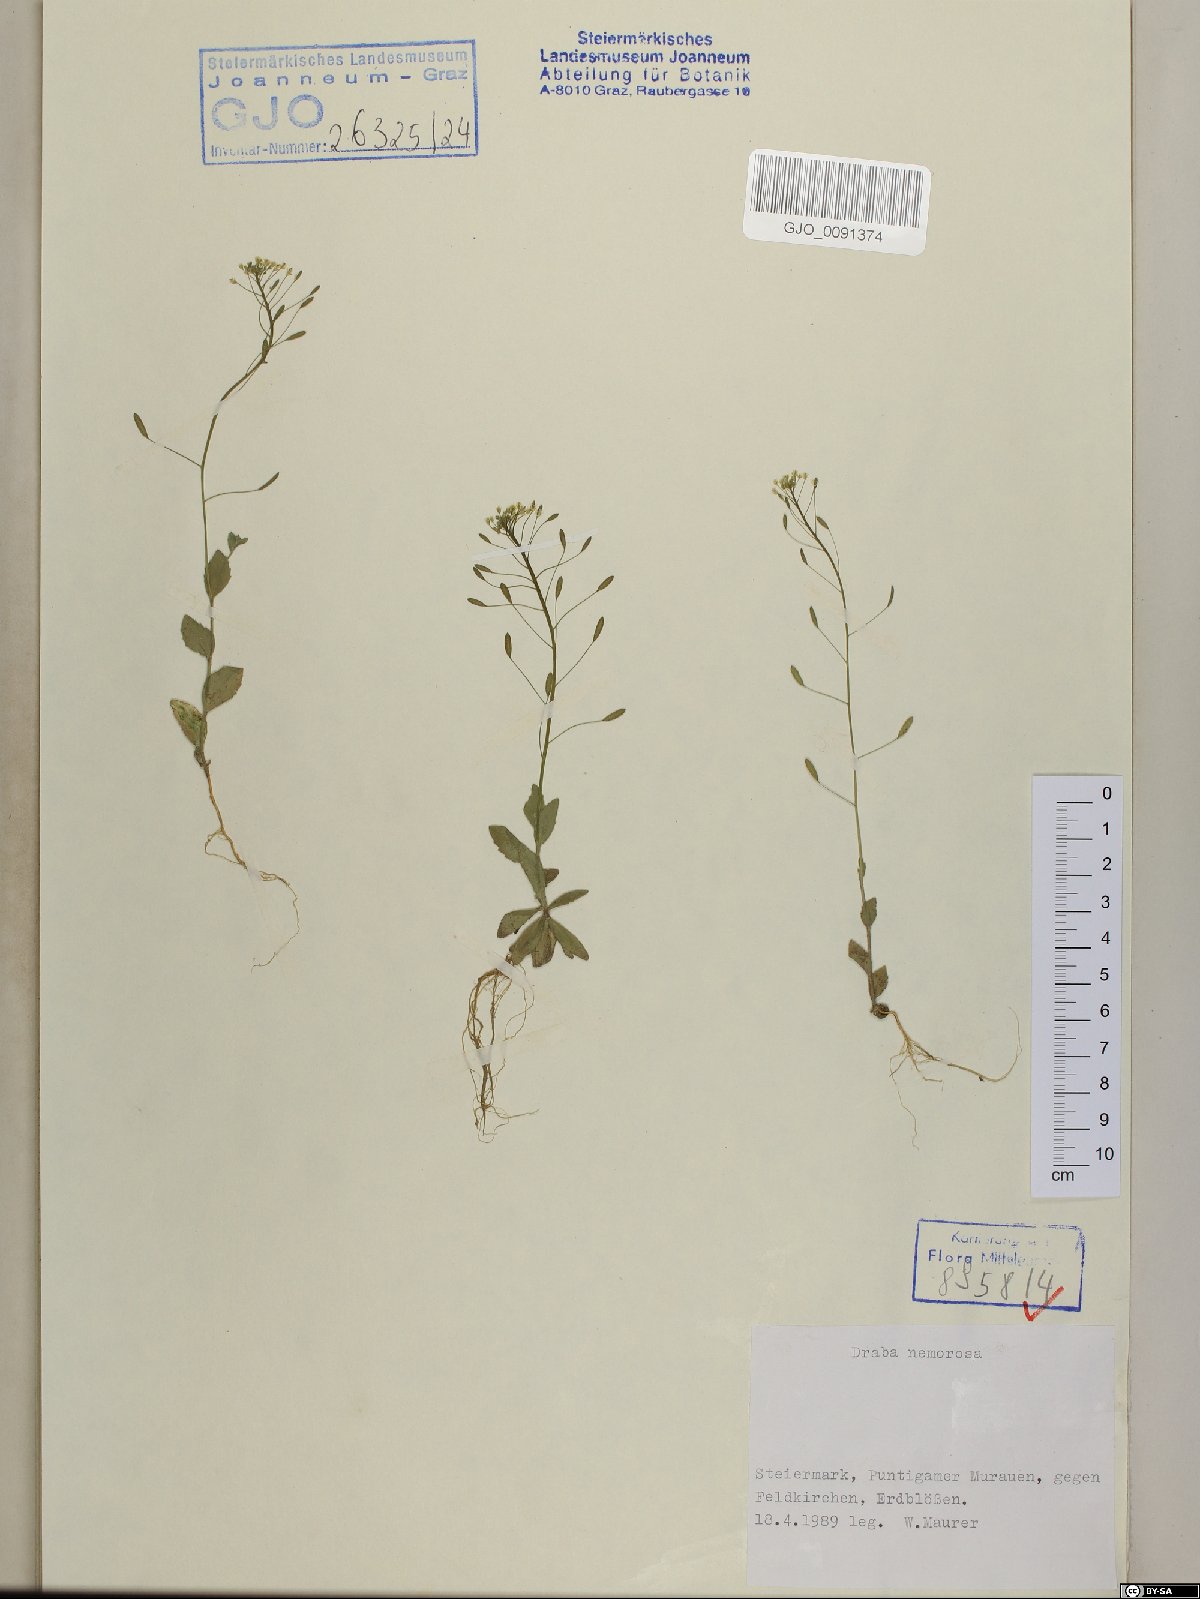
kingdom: Plantae
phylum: Tracheophyta
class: Magnoliopsida
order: Brassicales
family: Brassicaceae
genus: Draba
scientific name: Draba nemorosa
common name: Wood whitlow-grass
